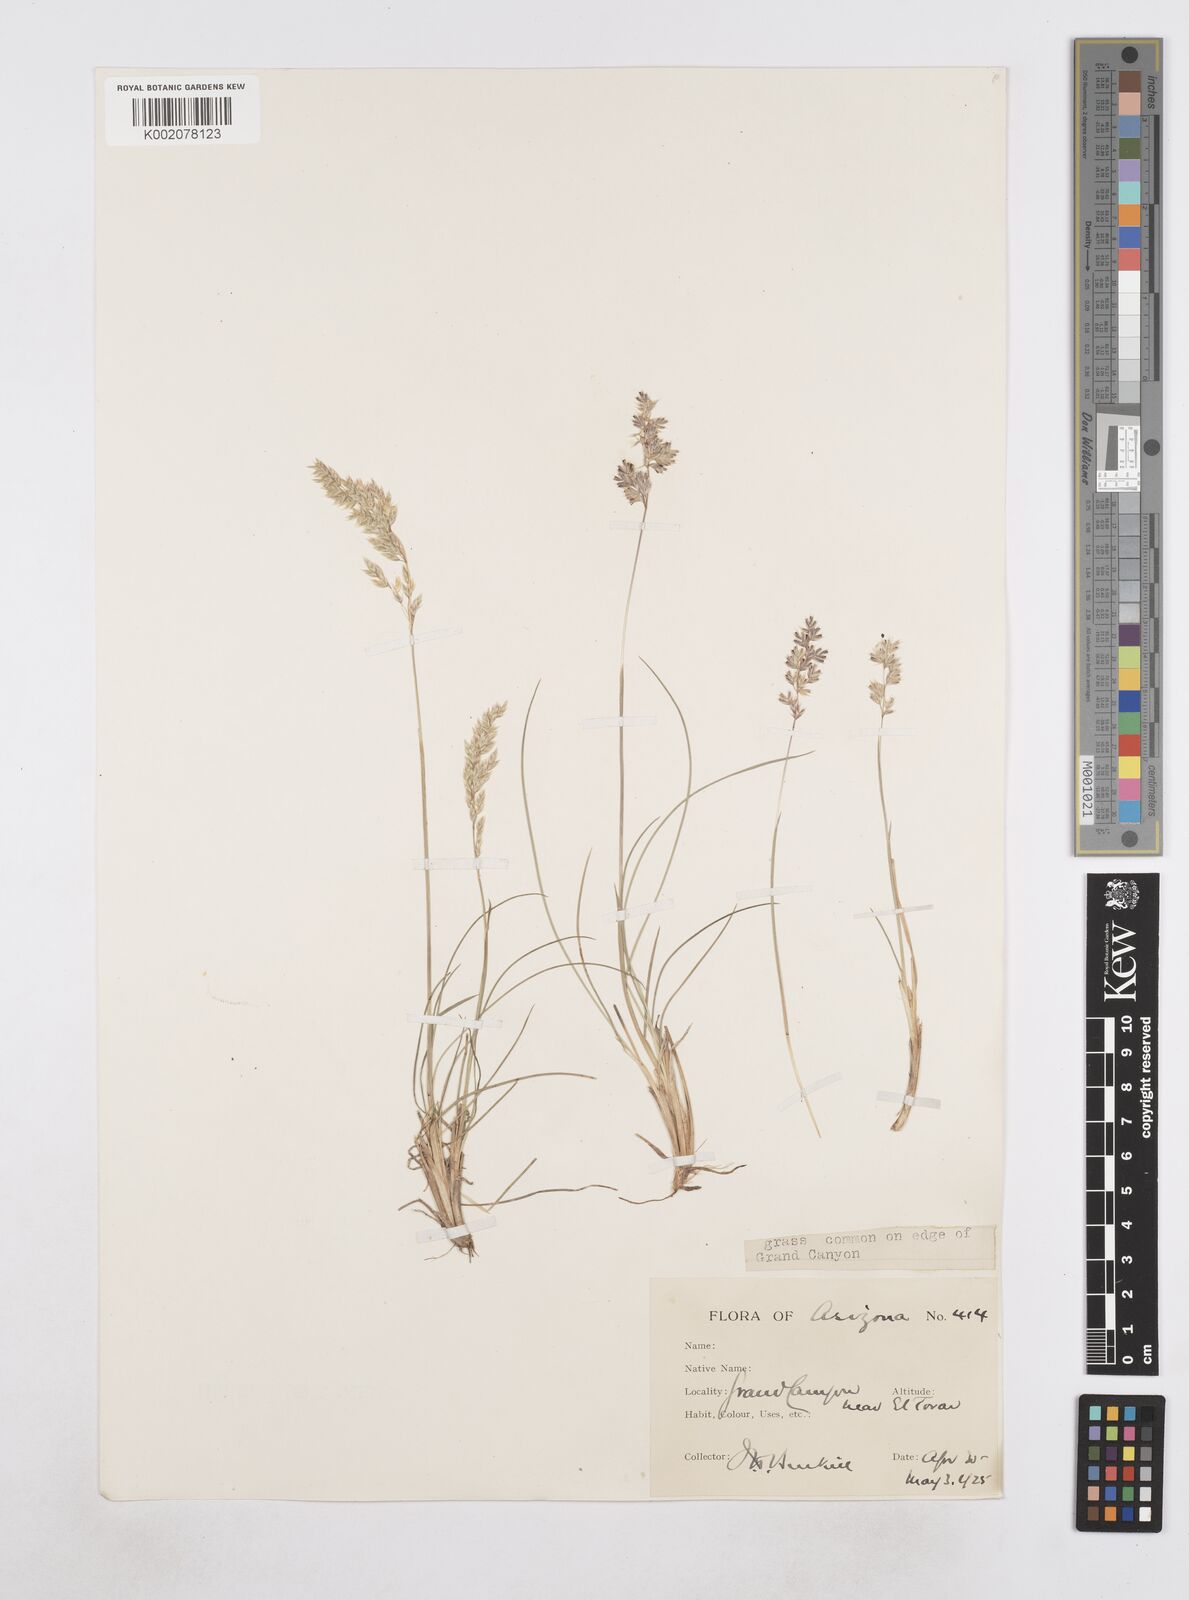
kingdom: Plantae
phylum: Tracheophyta
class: Liliopsida
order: Poales
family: Poaceae
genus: Poa
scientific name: Poa
